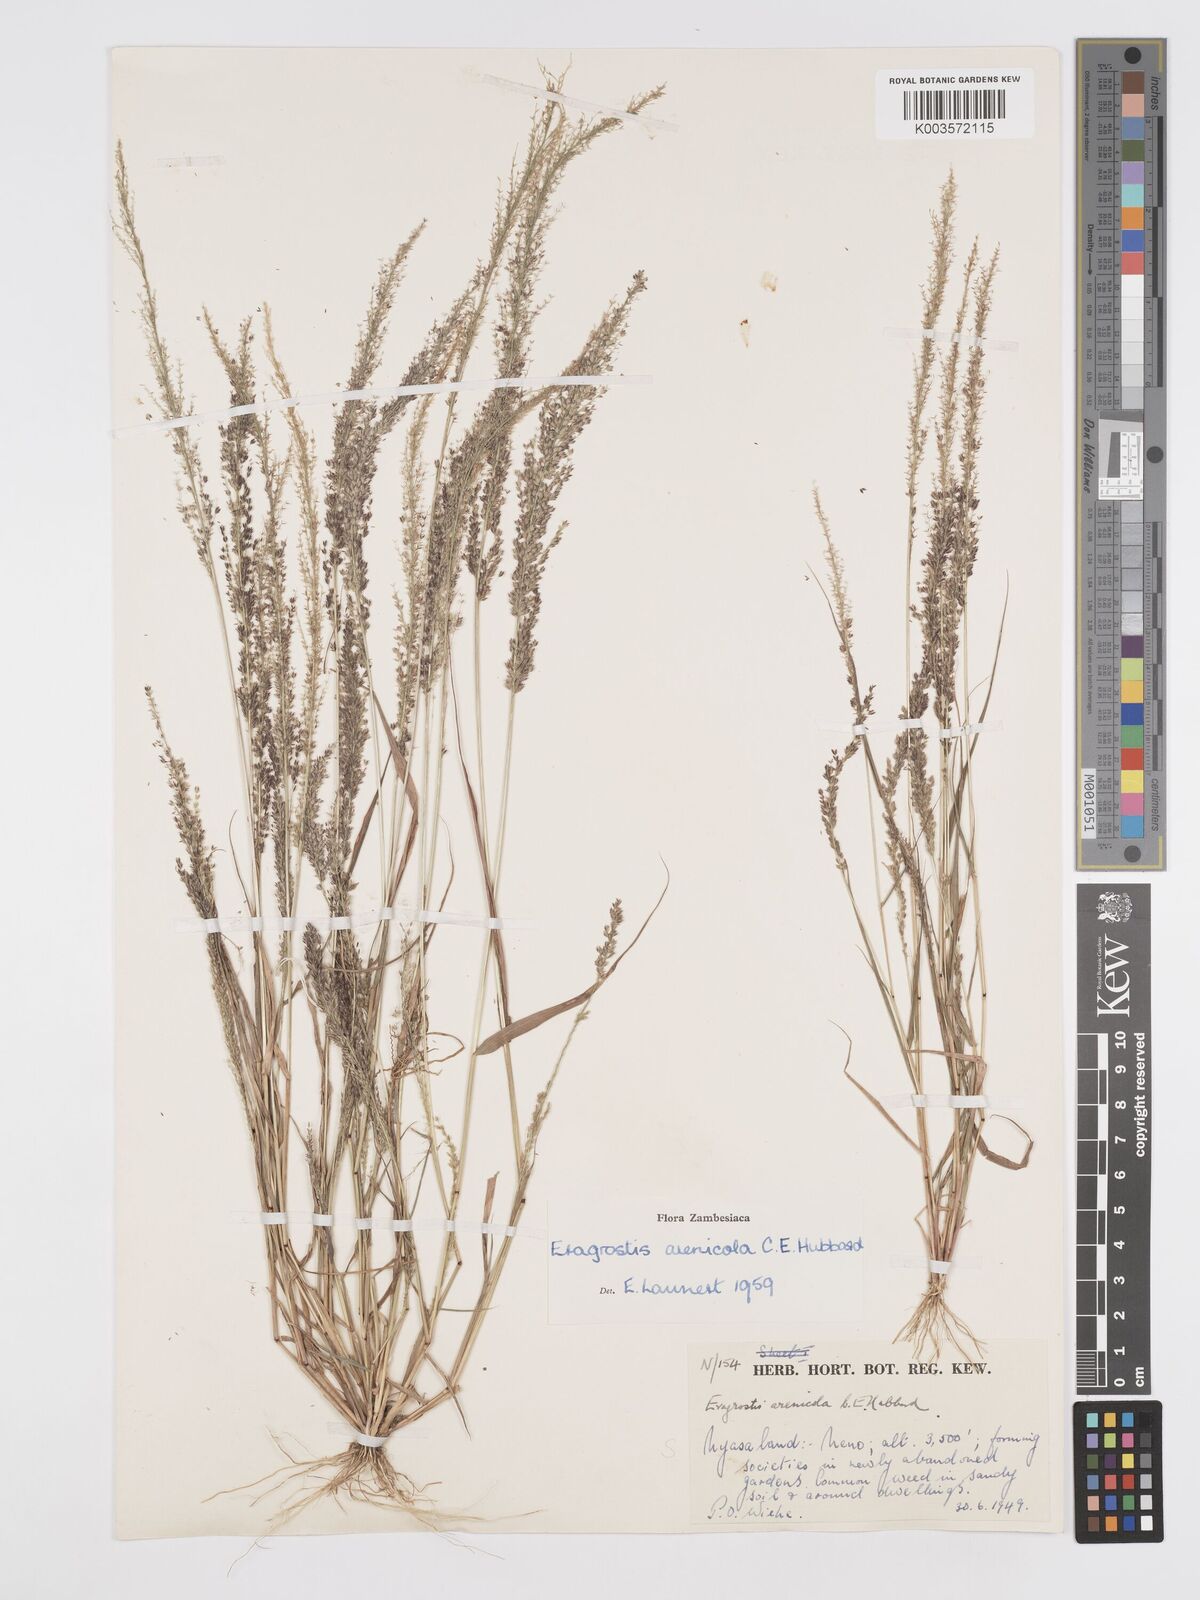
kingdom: Plantae
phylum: Tracheophyta
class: Liliopsida
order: Poales
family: Poaceae
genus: Eragrostis
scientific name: Eragrostis arenicola
